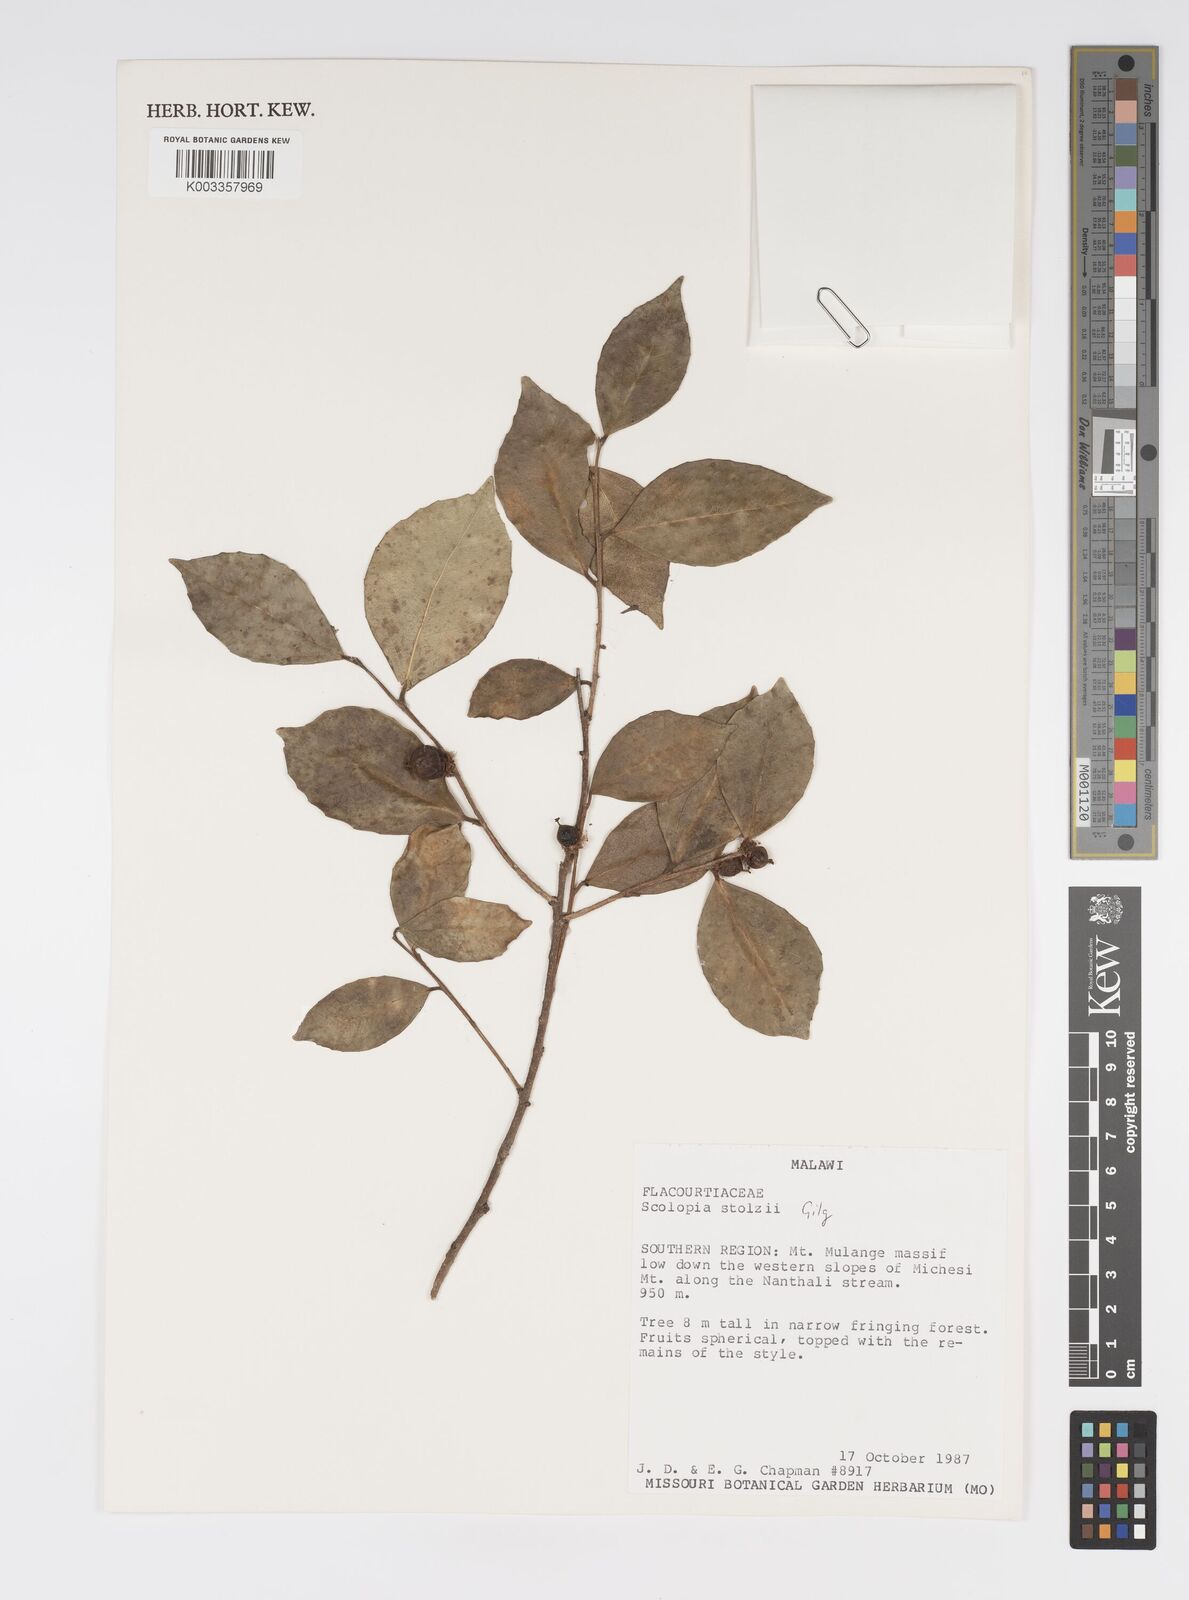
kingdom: Plantae
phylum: Tracheophyta
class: Magnoliopsida
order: Malpighiales
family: Salicaceae
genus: Scolopia
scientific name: Scolopia stolzii
